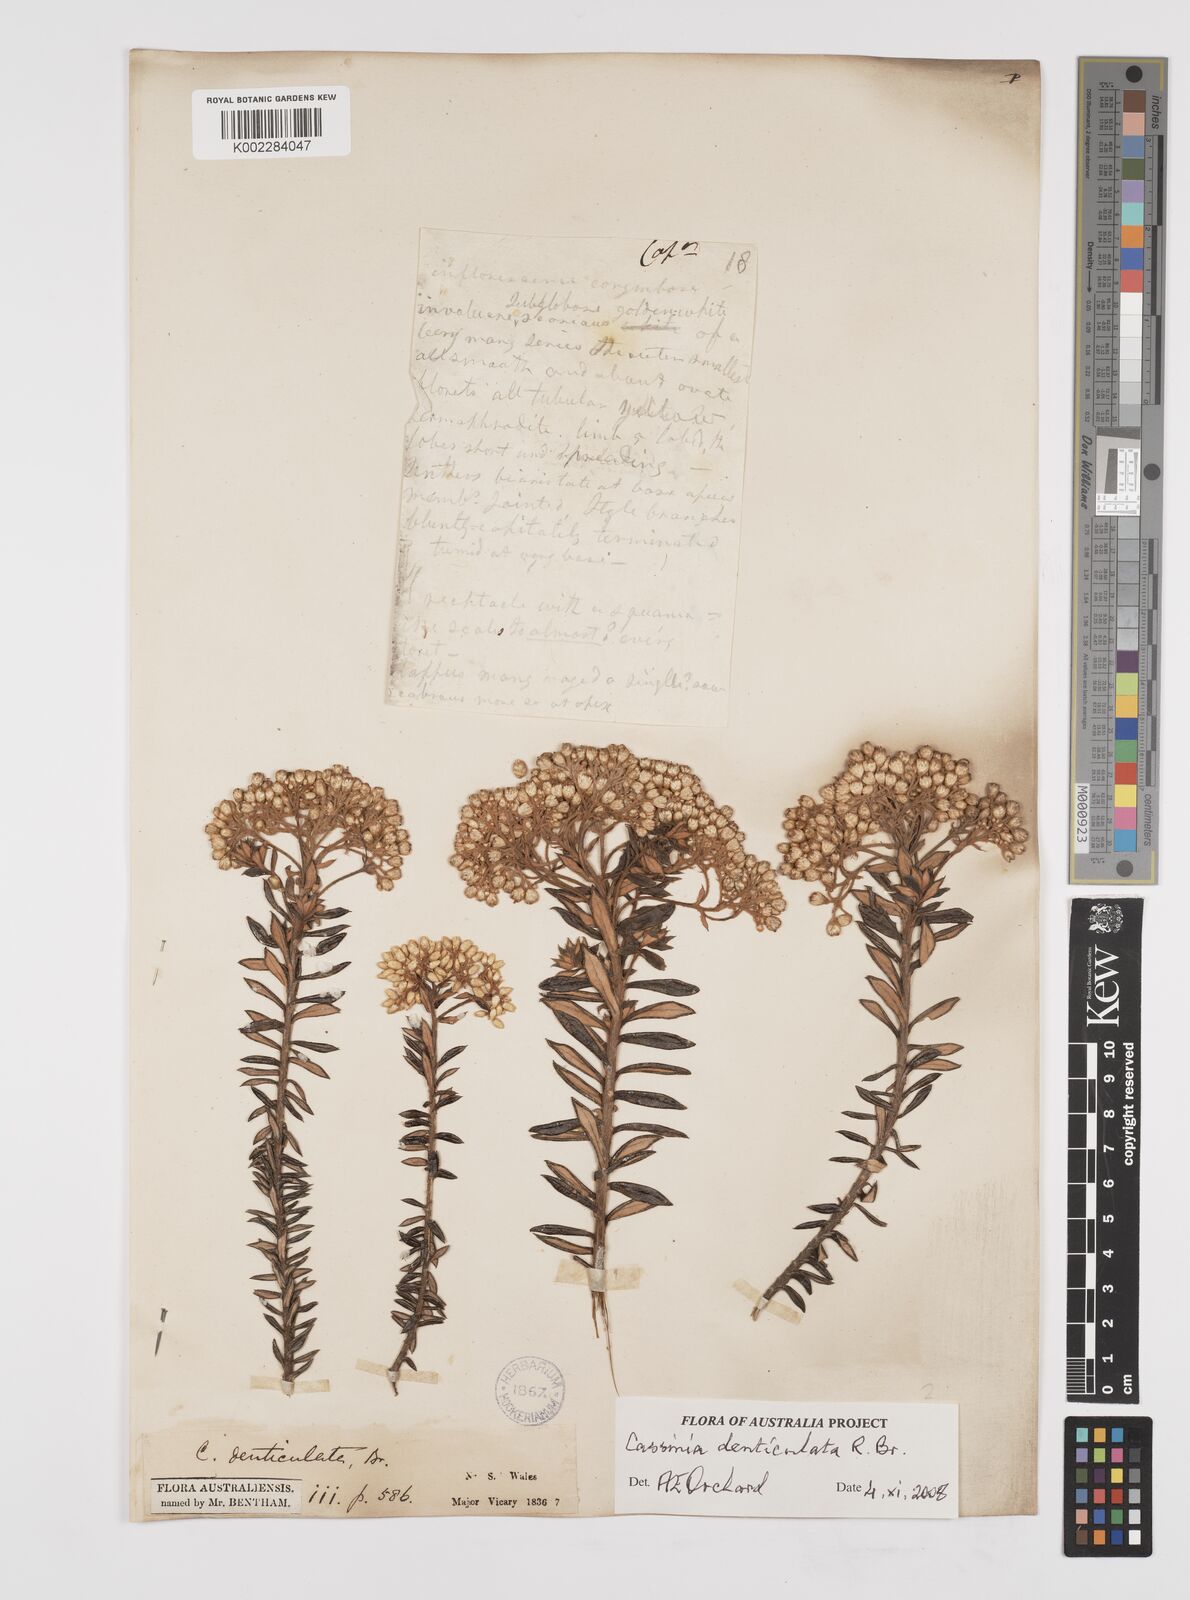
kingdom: Plantae
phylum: Tracheophyta
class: Magnoliopsida
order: Asterales
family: Asteraceae
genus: Cassinia
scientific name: Cassinia denticulata
